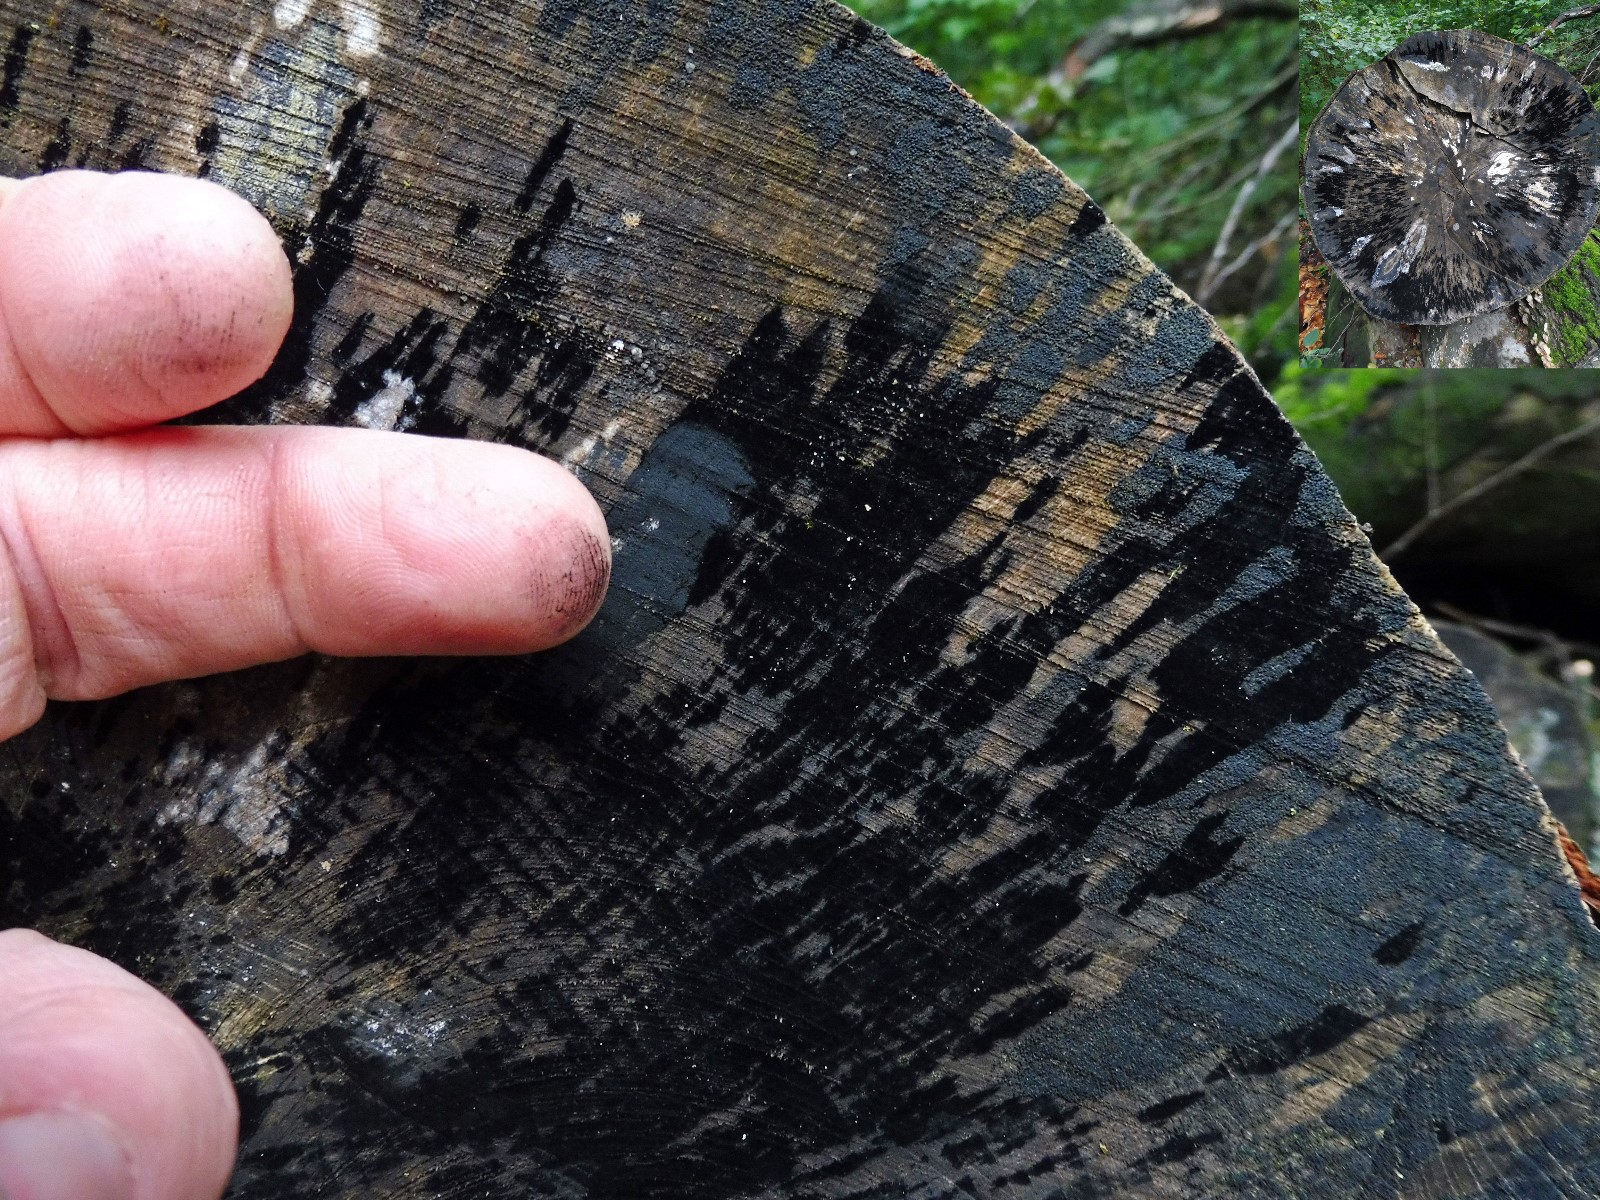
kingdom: Fungi
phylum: Ascomycota
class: Leotiomycetes
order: Helotiales
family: Helotiaceae
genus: Bispora
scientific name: Bispora pallescens
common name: måtte-snitskive
